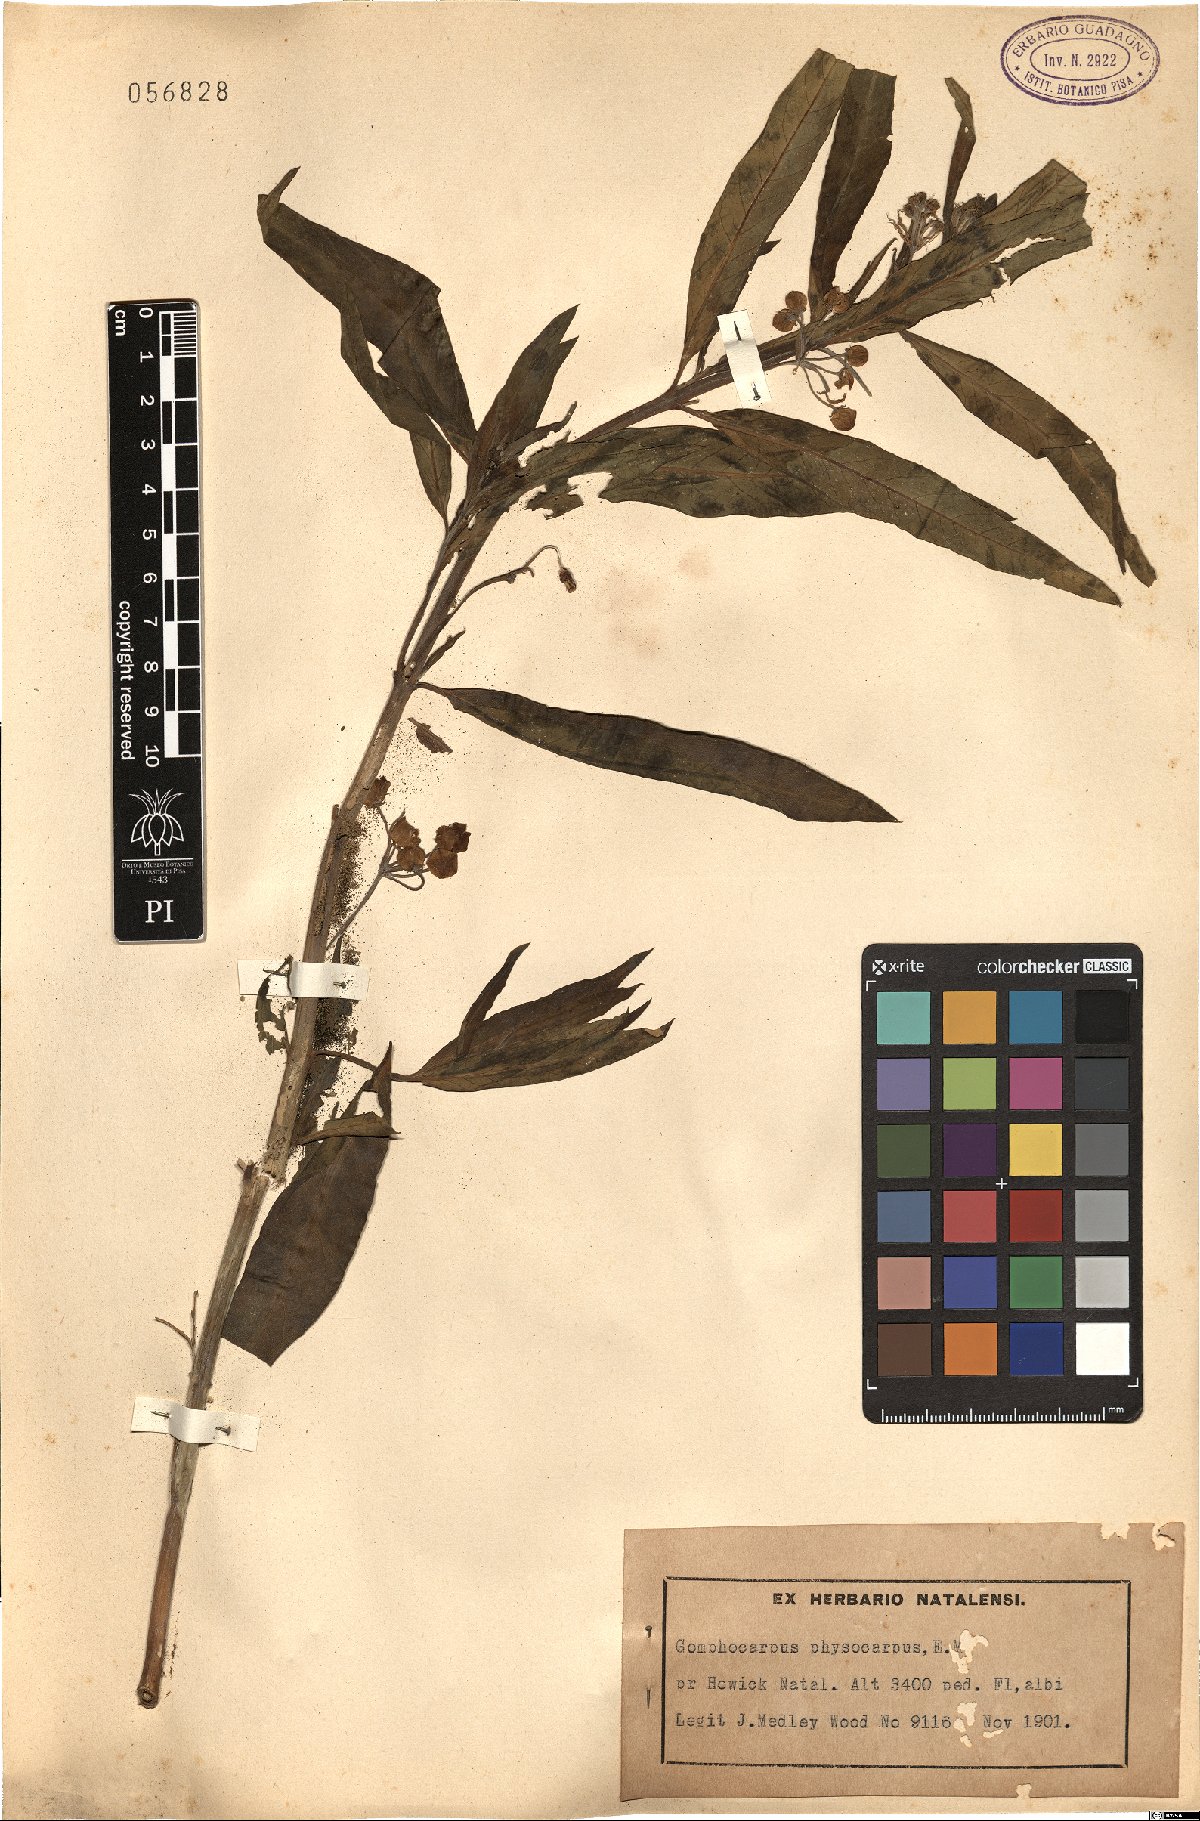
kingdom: Plantae
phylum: Tracheophyta
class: Magnoliopsida
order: Gentianales
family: Apocynaceae
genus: Gomphocarpus
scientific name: Gomphocarpus physocarpus
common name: Balloon cotton bush
